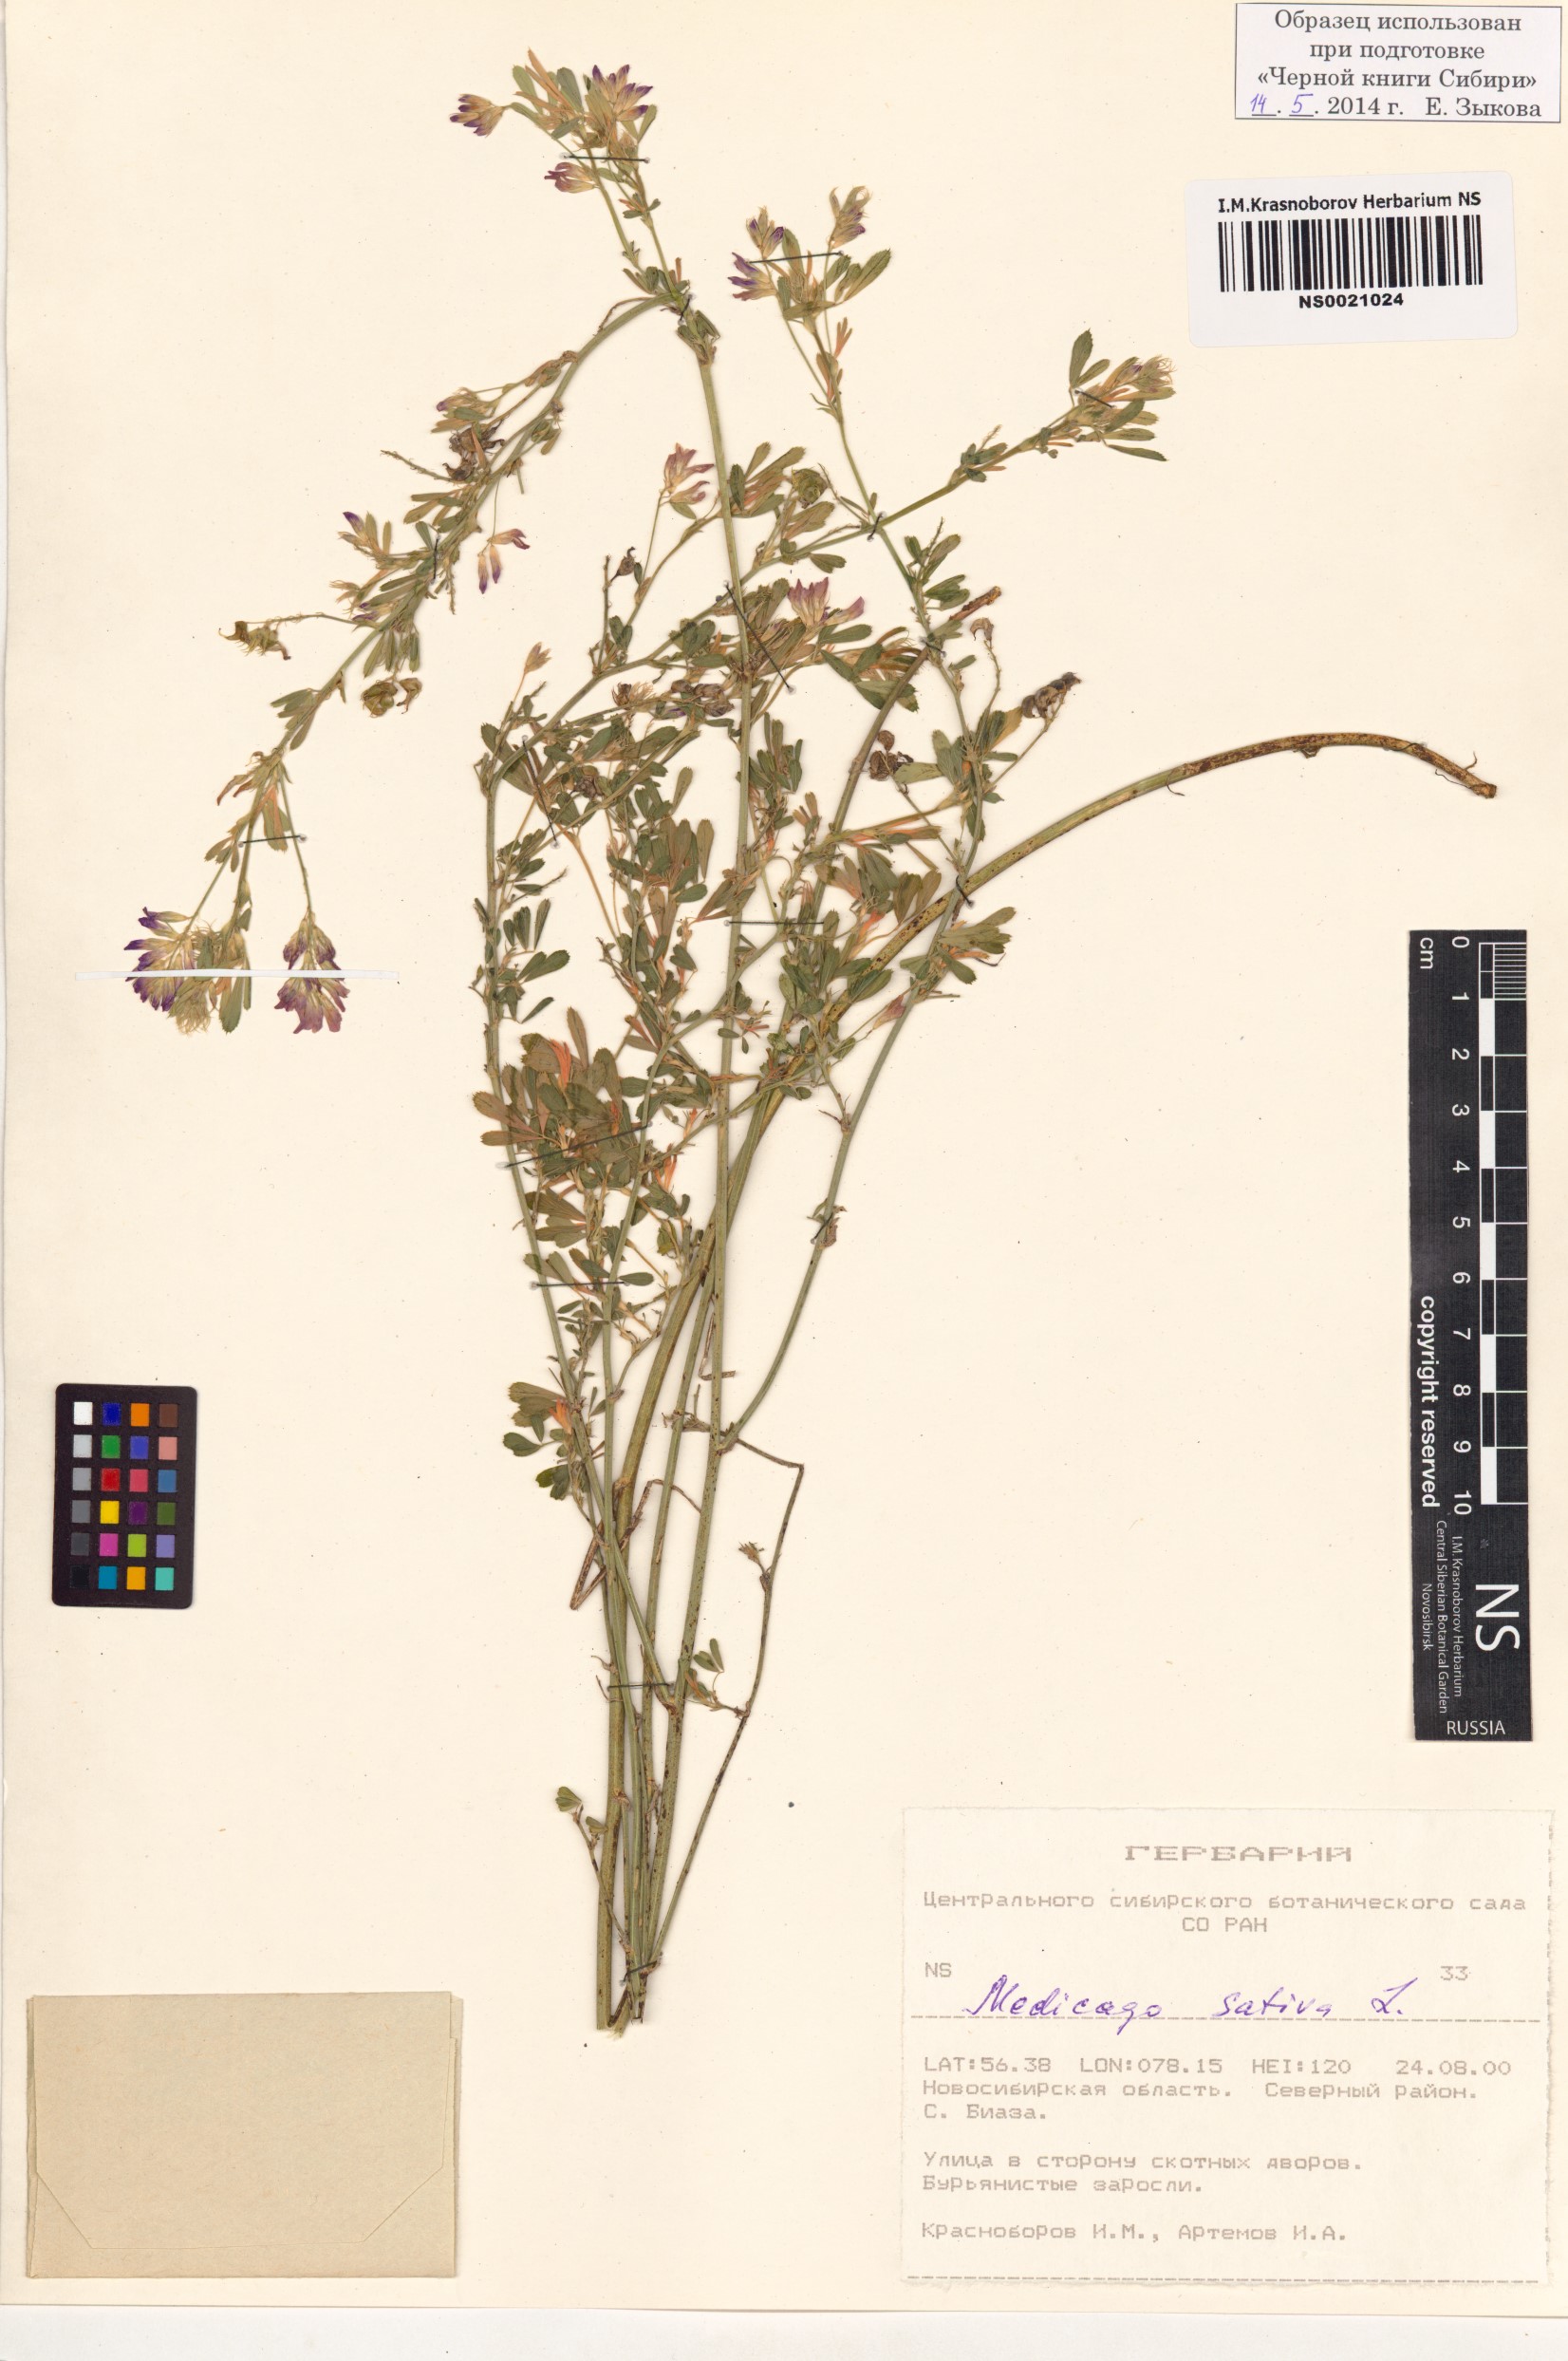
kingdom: Plantae
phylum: Tracheophyta
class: Magnoliopsida
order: Fabales
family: Fabaceae
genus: Medicago
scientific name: Medicago sativa
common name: Alfalfa
